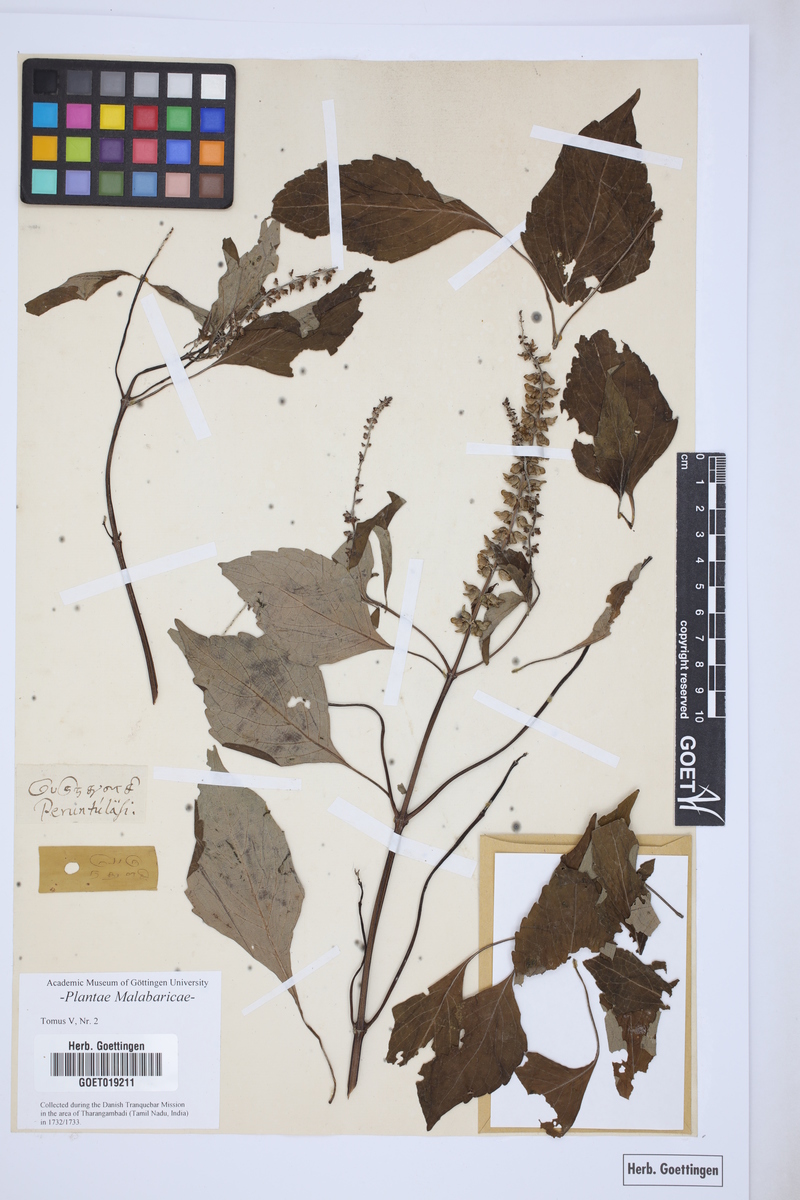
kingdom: Plantae
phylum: Tracheophyta
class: Magnoliopsida
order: Lamiales
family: Lamiaceae
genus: Ocimum
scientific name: Ocimum
